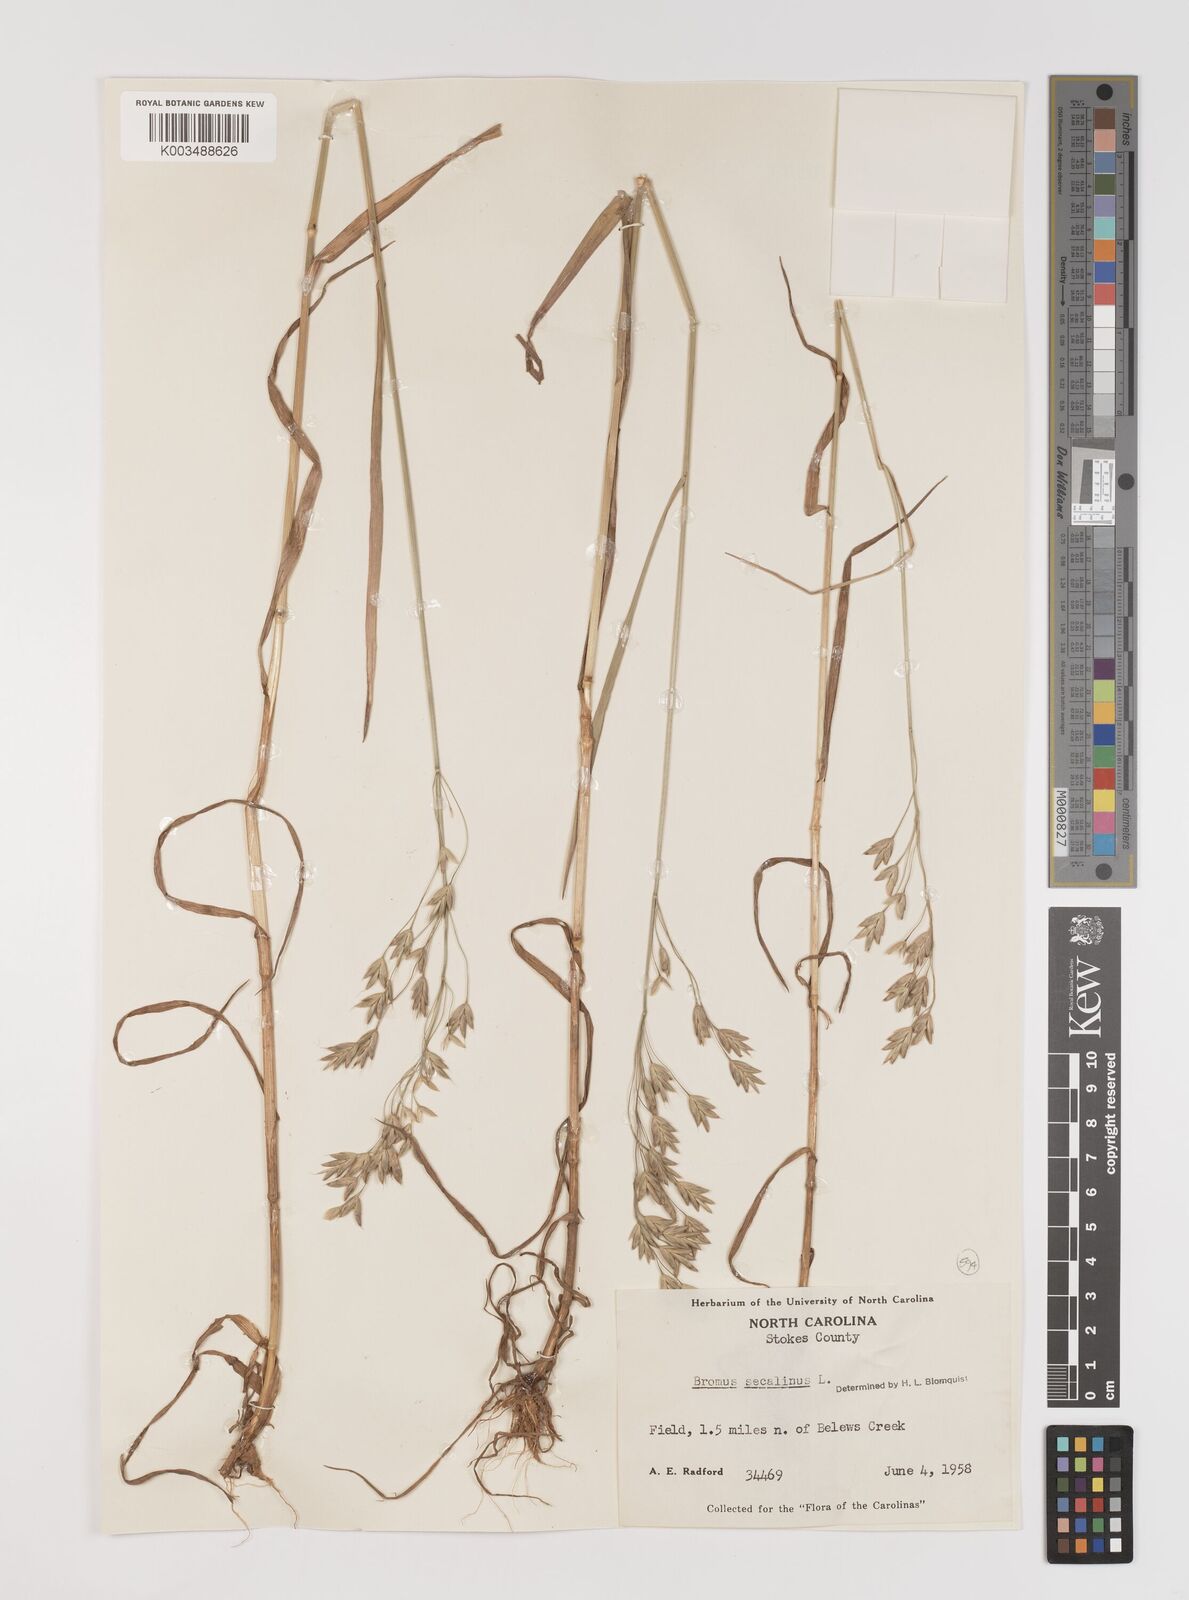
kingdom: Plantae
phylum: Tracheophyta
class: Liliopsida
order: Poales
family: Poaceae
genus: Bromus
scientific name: Bromus secalinus
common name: Rye brome
